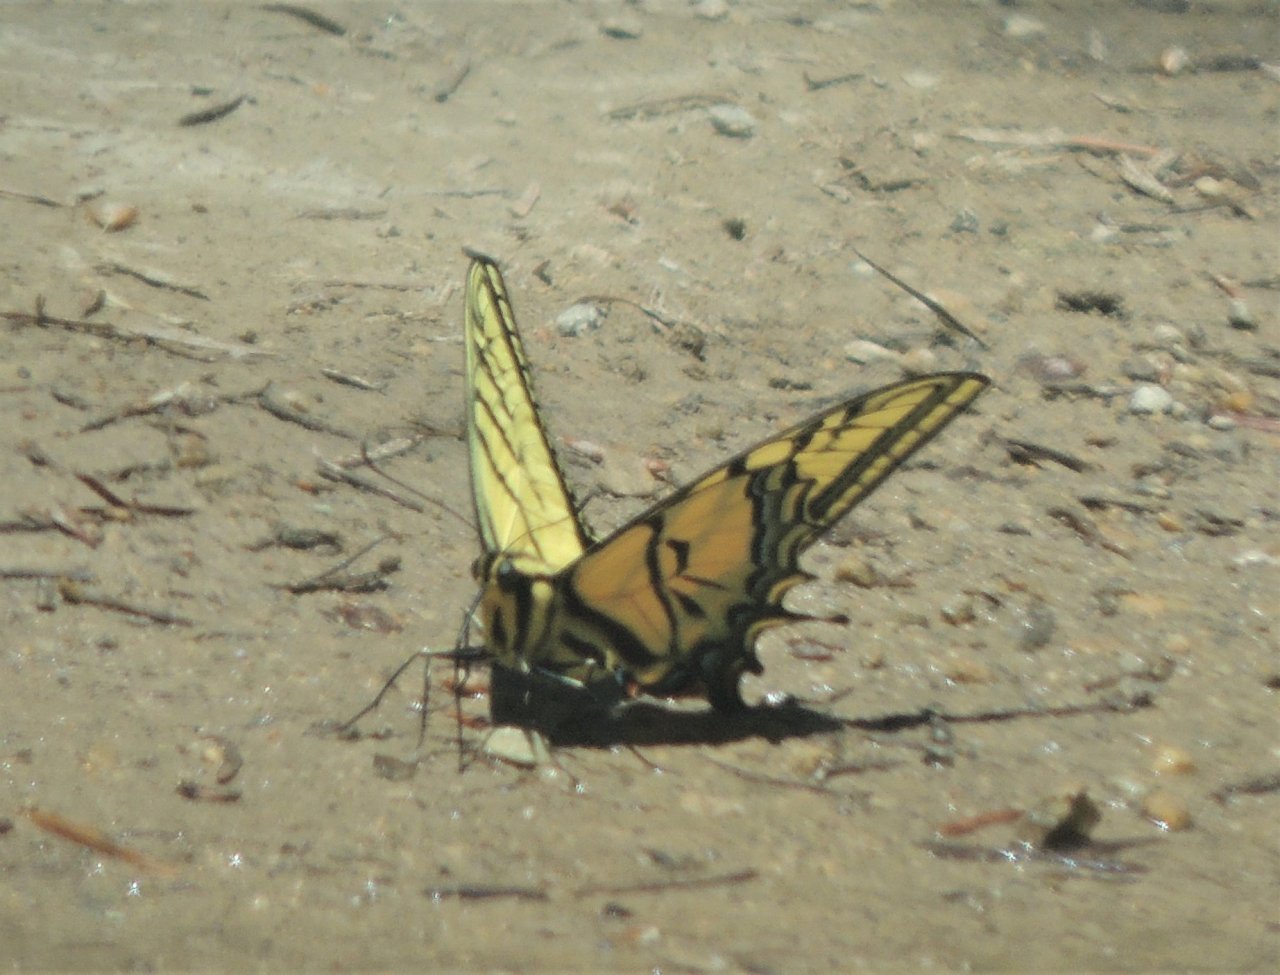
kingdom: Animalia
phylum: Arthropoda
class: Insecta
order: Lepidoptera
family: Papilionidae
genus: Papilio
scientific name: Papilio multicaudata
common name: Two-tailed Swallowtail
